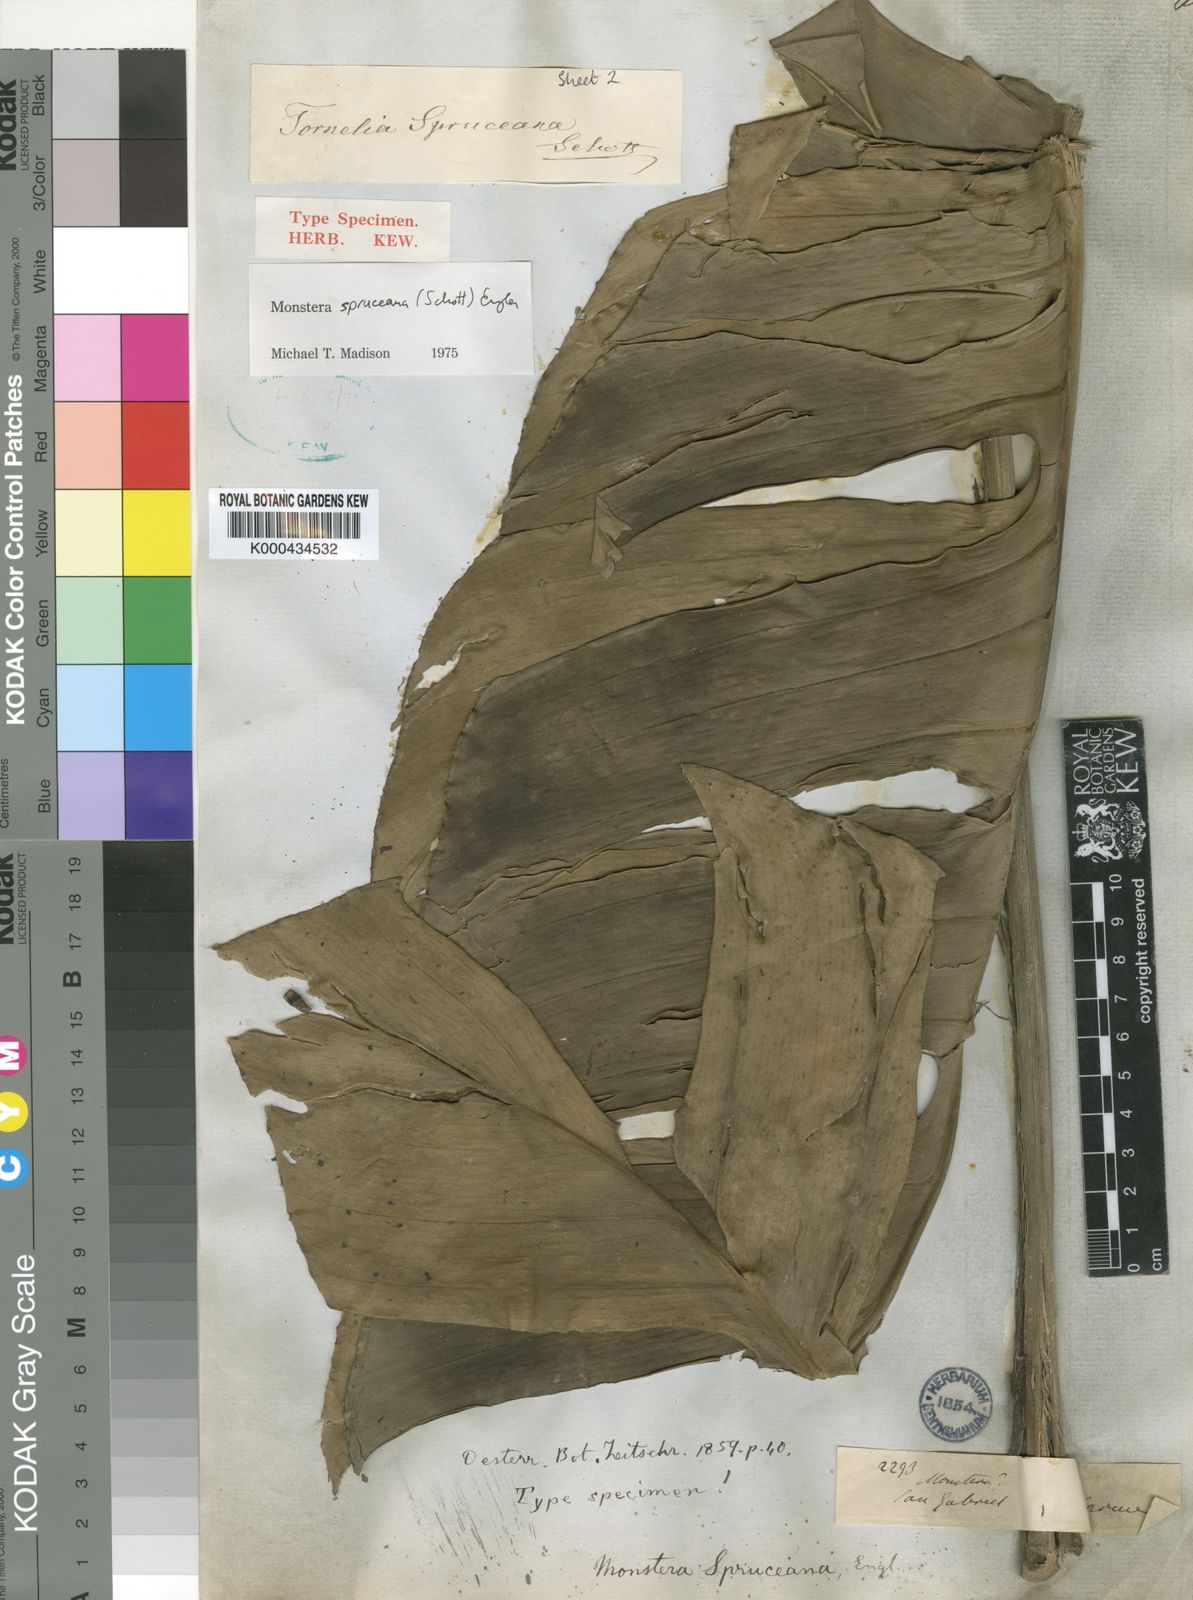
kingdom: Plantae
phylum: Tracheophyta
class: Liliopsida
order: Alismatales
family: Araceae
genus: Monstera
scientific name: Monstera spruceana
